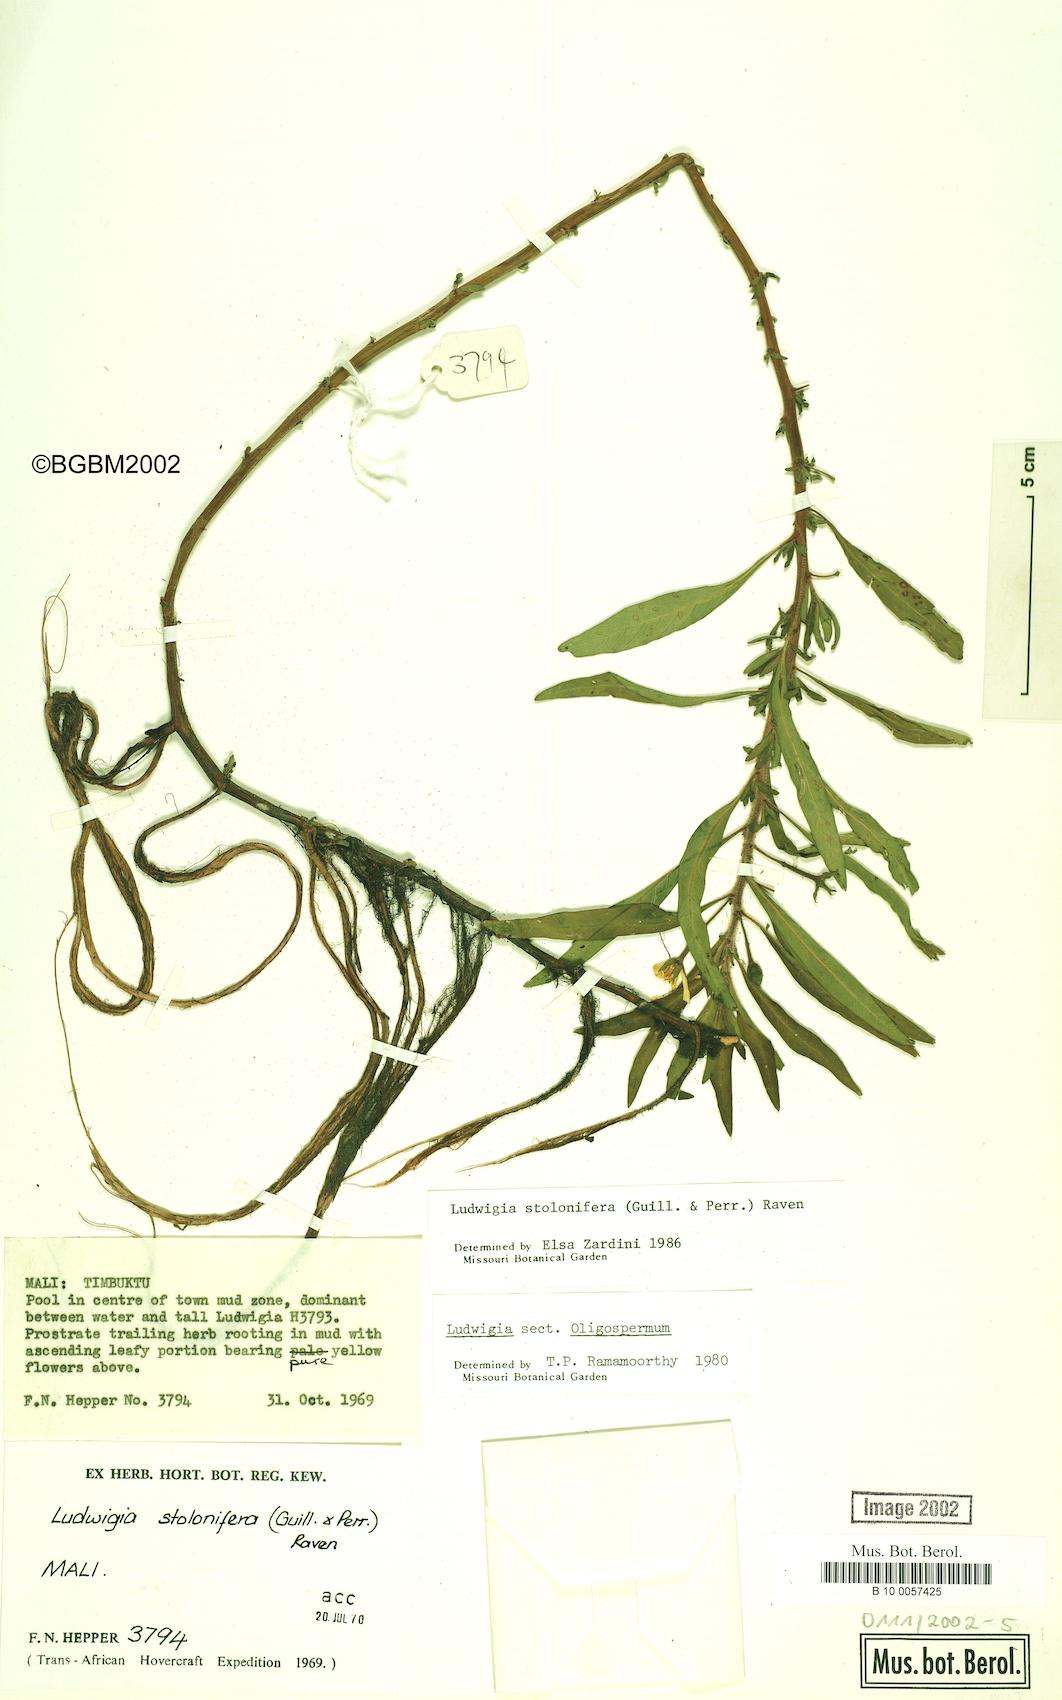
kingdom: Plantae
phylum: Tracheophyta
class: Magnoliopsida
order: Myrtales
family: Onagraceae
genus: Ludwigia
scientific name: Ludwigia adscendens
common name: Creeping water primrose
